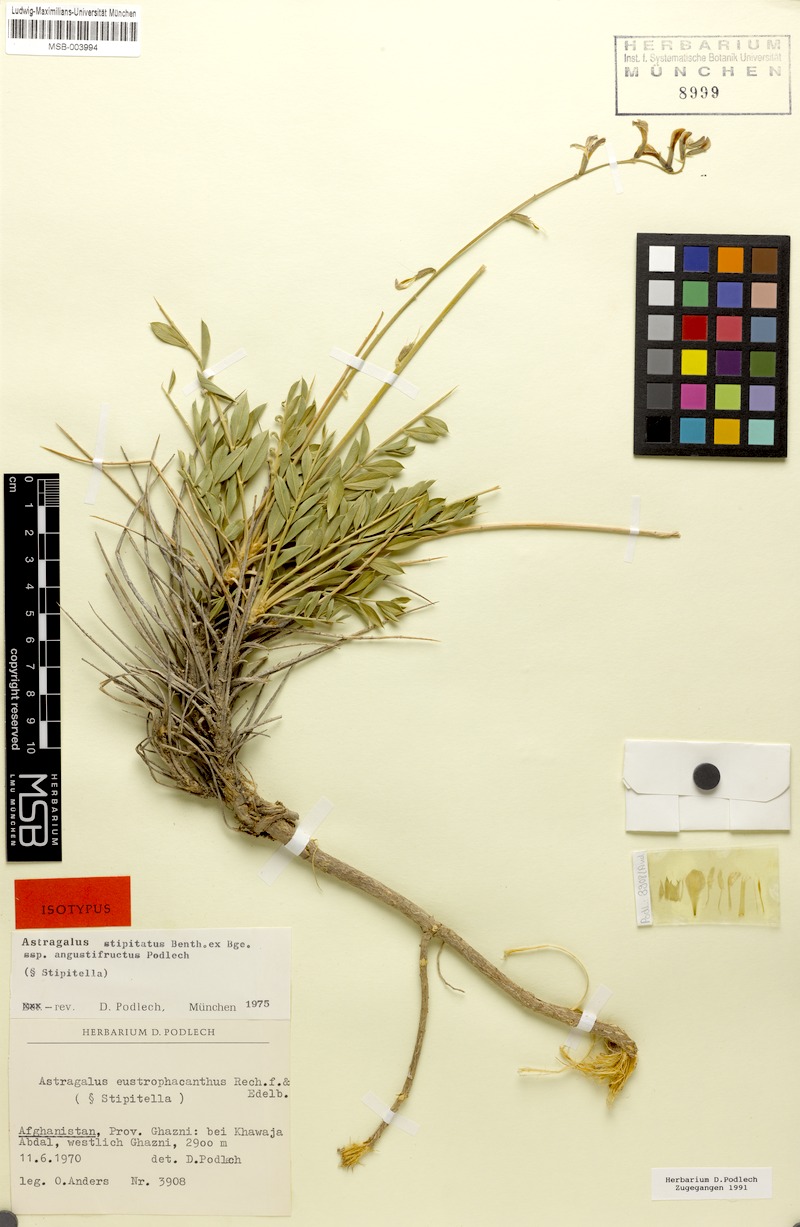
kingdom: Plantae
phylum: Tracheophyta
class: Magnoliopsida
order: Fabales
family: Fabaceae
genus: Astragalus
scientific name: Astragalus eustrophacanthus
